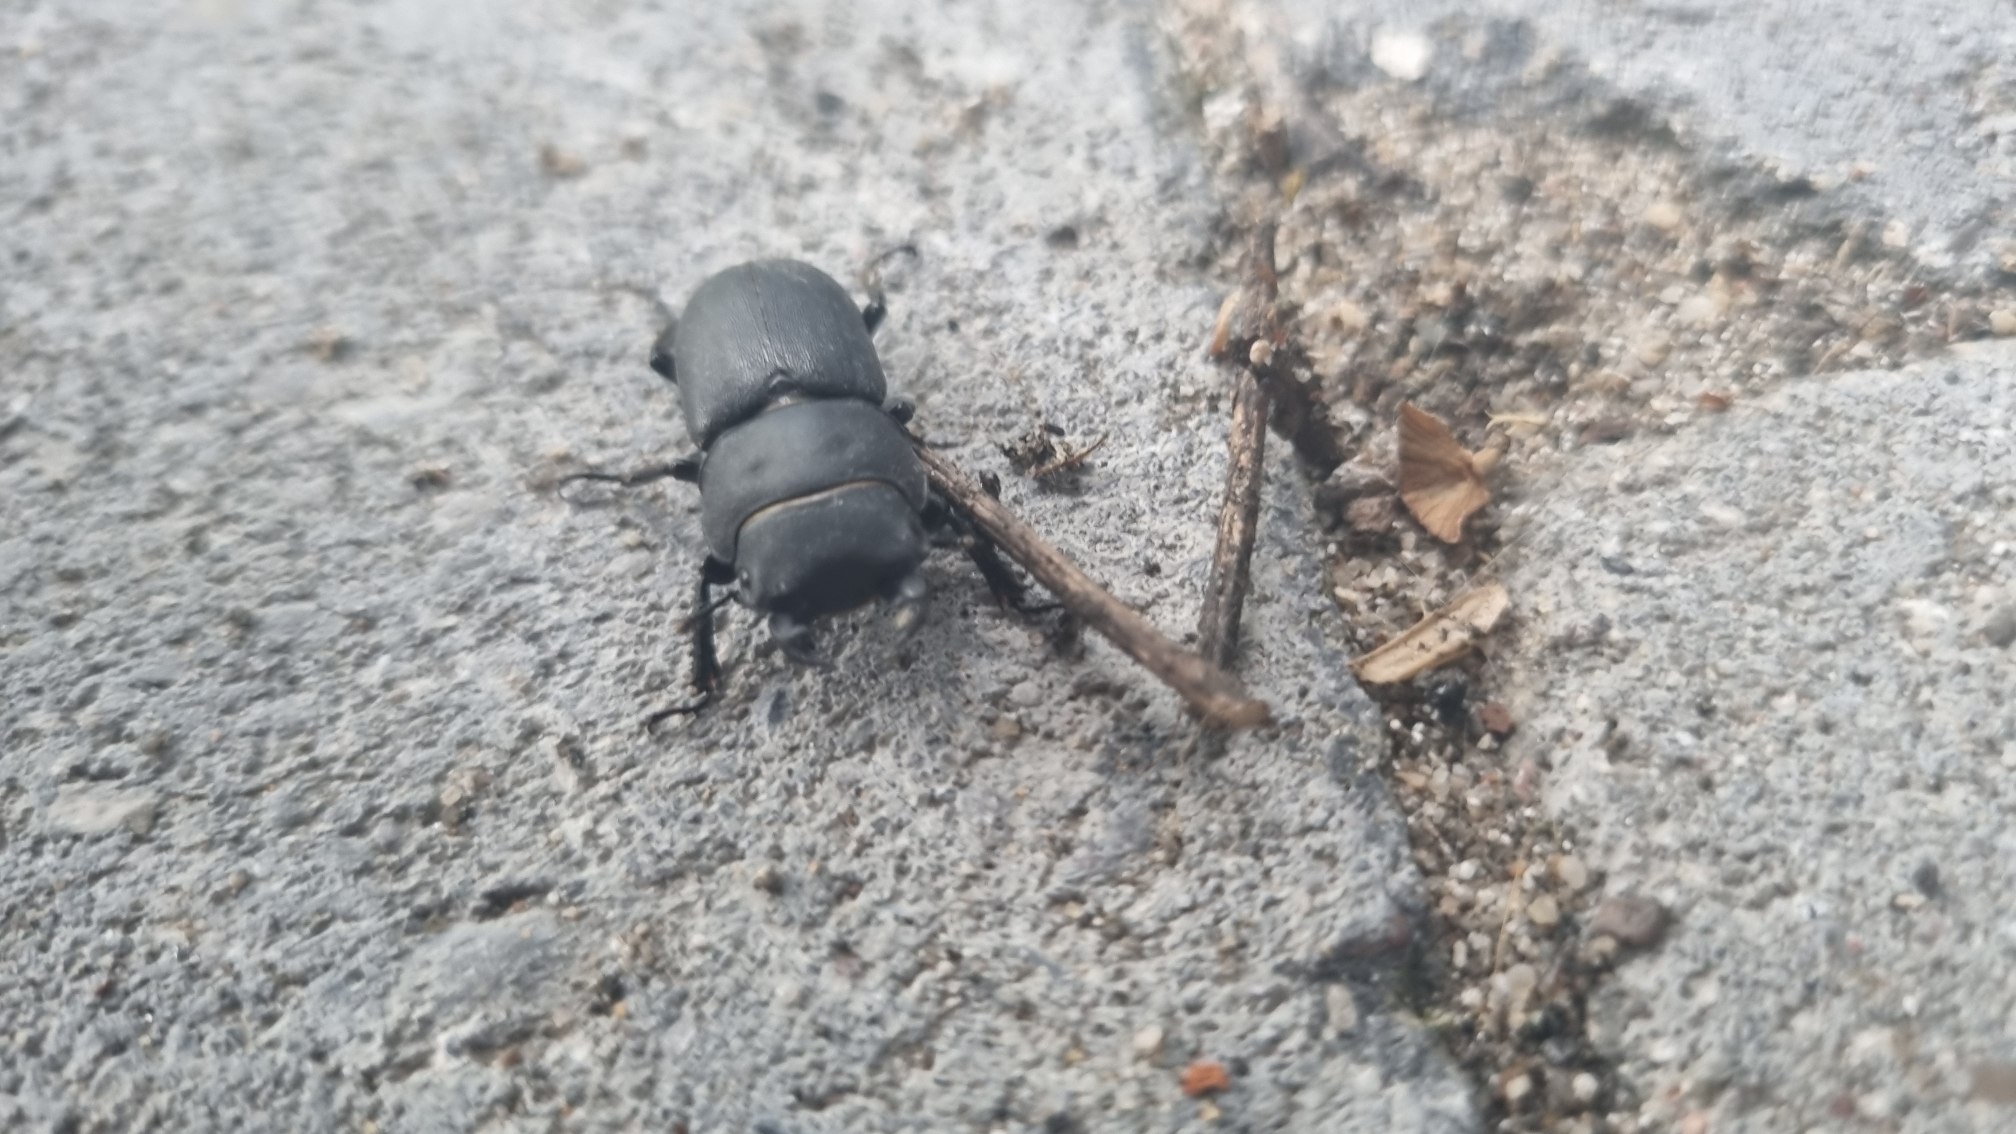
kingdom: Animalia
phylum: Arthropoda
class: Insecta
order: Coleoptera
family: Lucanidae
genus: Dorcus
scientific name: Dorcus parallelipipedus
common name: Bøghjort
